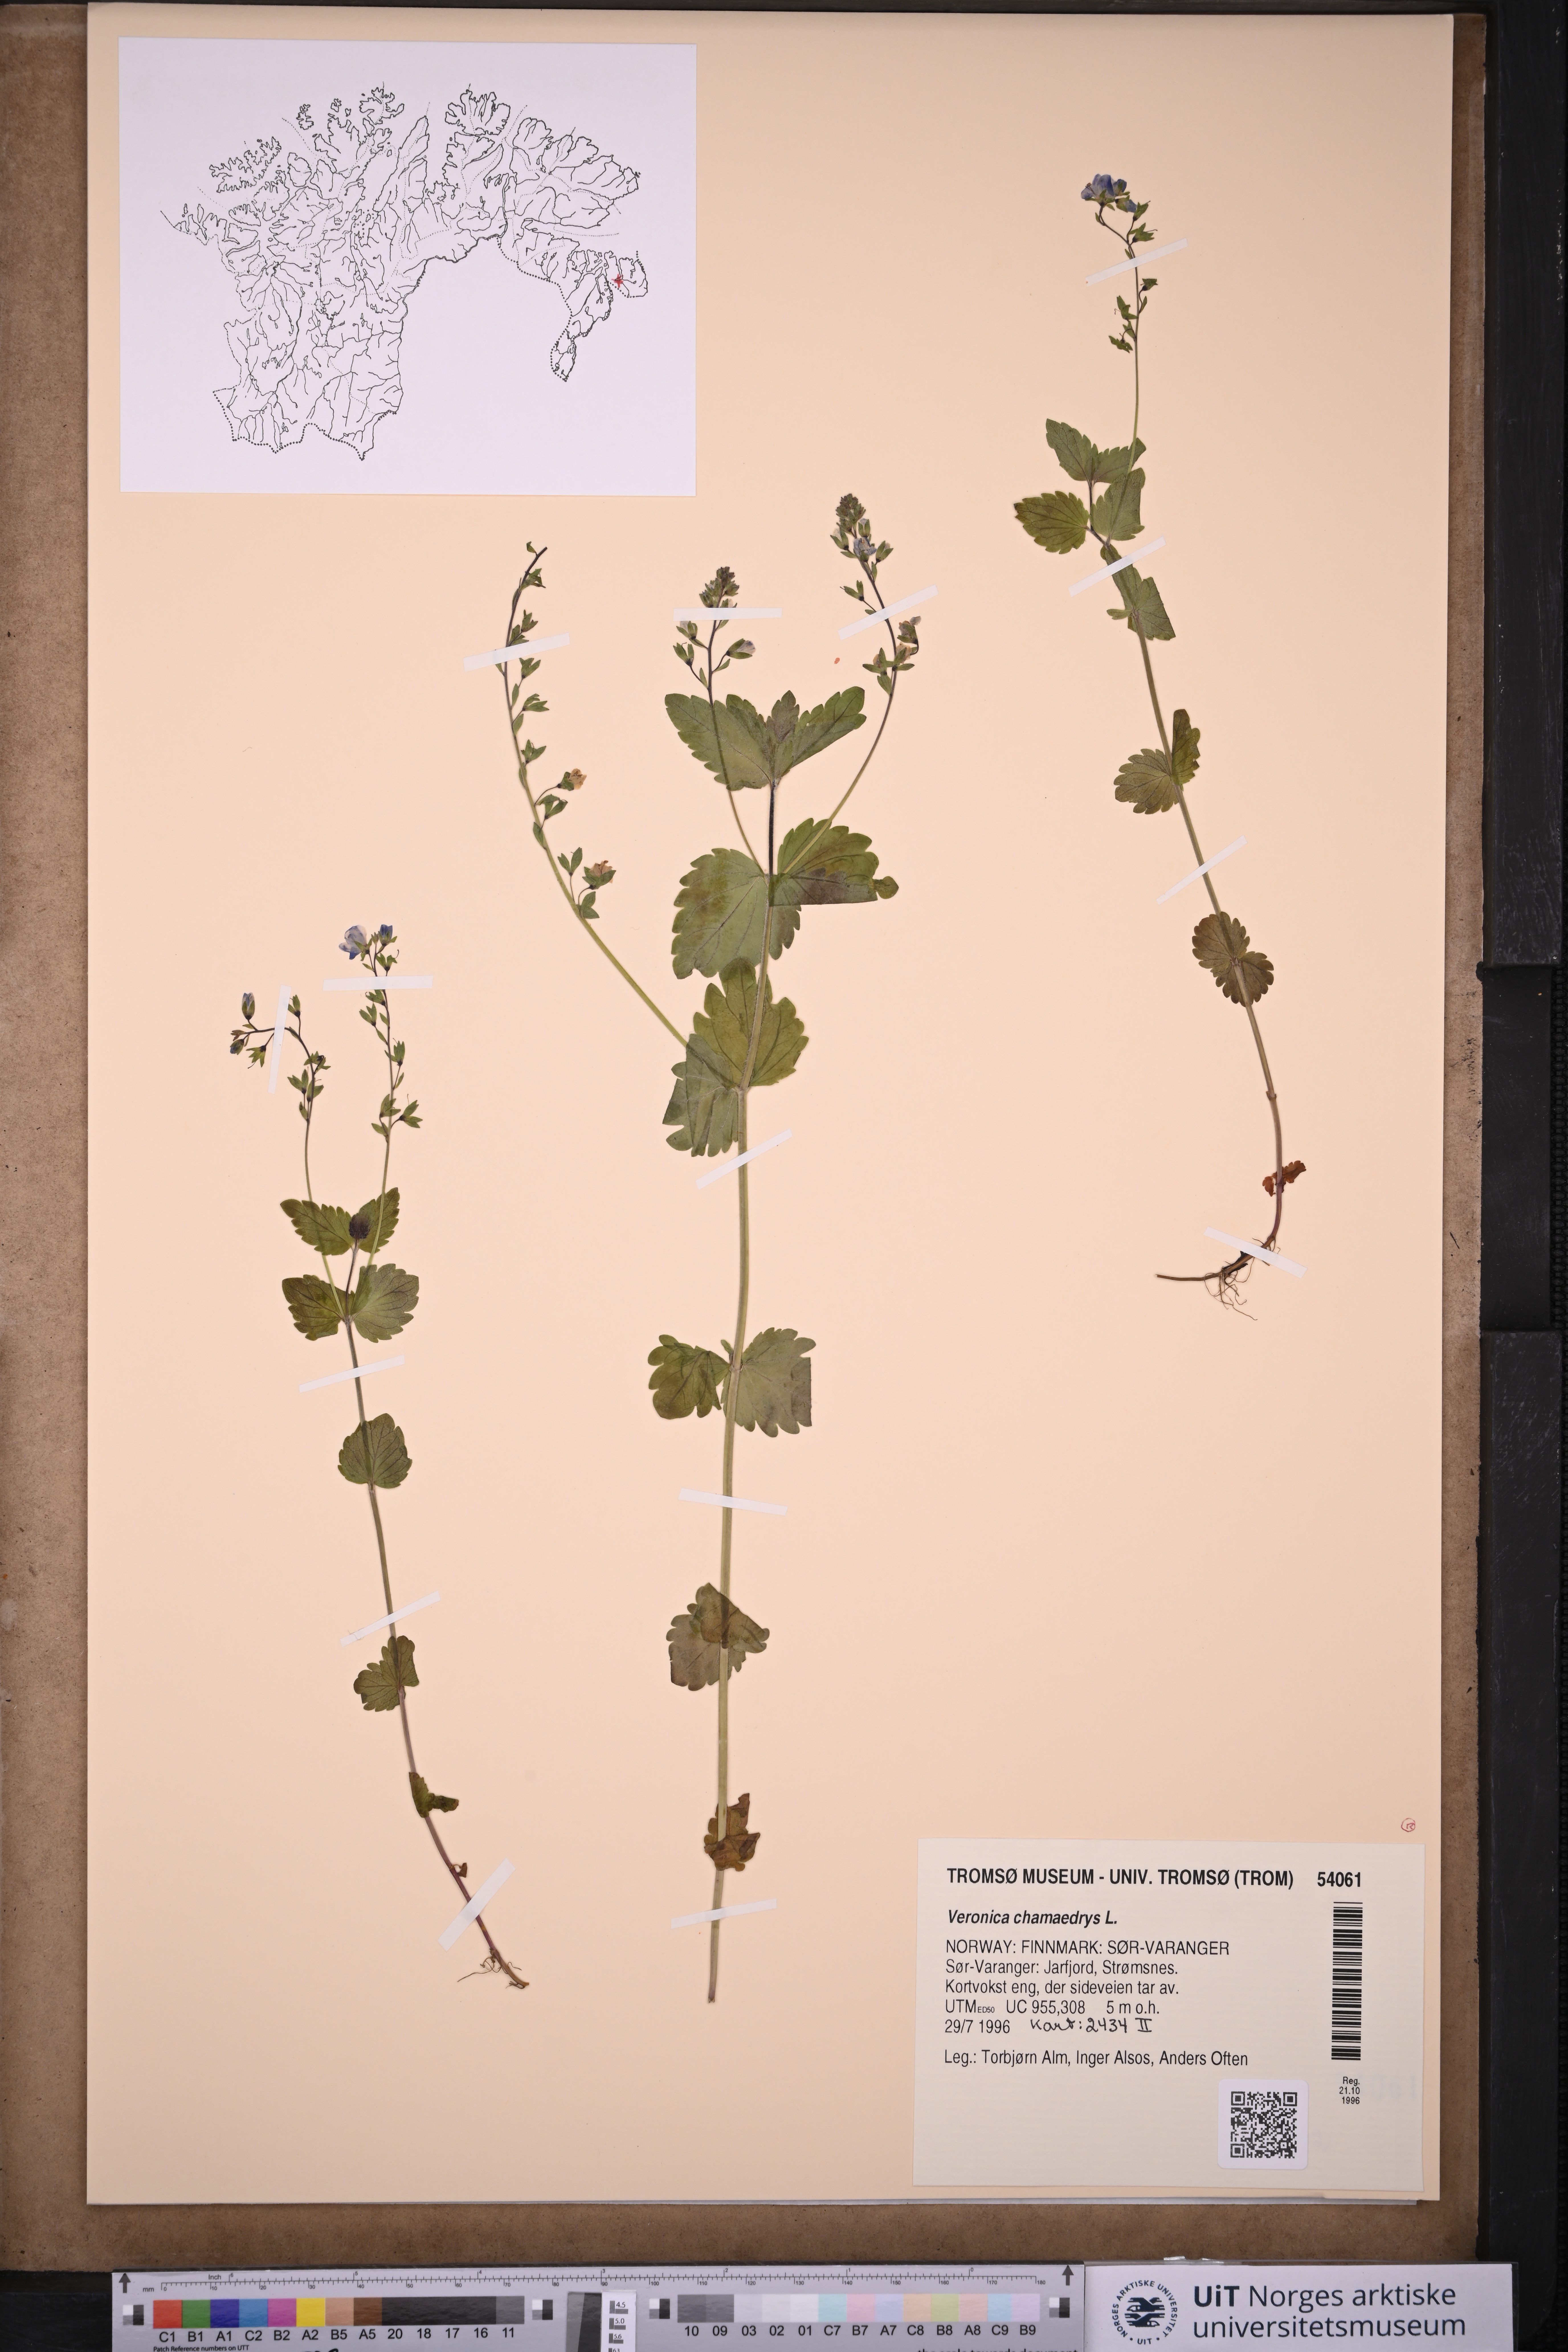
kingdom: Plantae
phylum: Tracheophyta
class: Magnoliopsida
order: Lamiales
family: Plantaginaceae
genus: Veronica
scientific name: Veronica chamaedrys
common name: Germander speedwell
